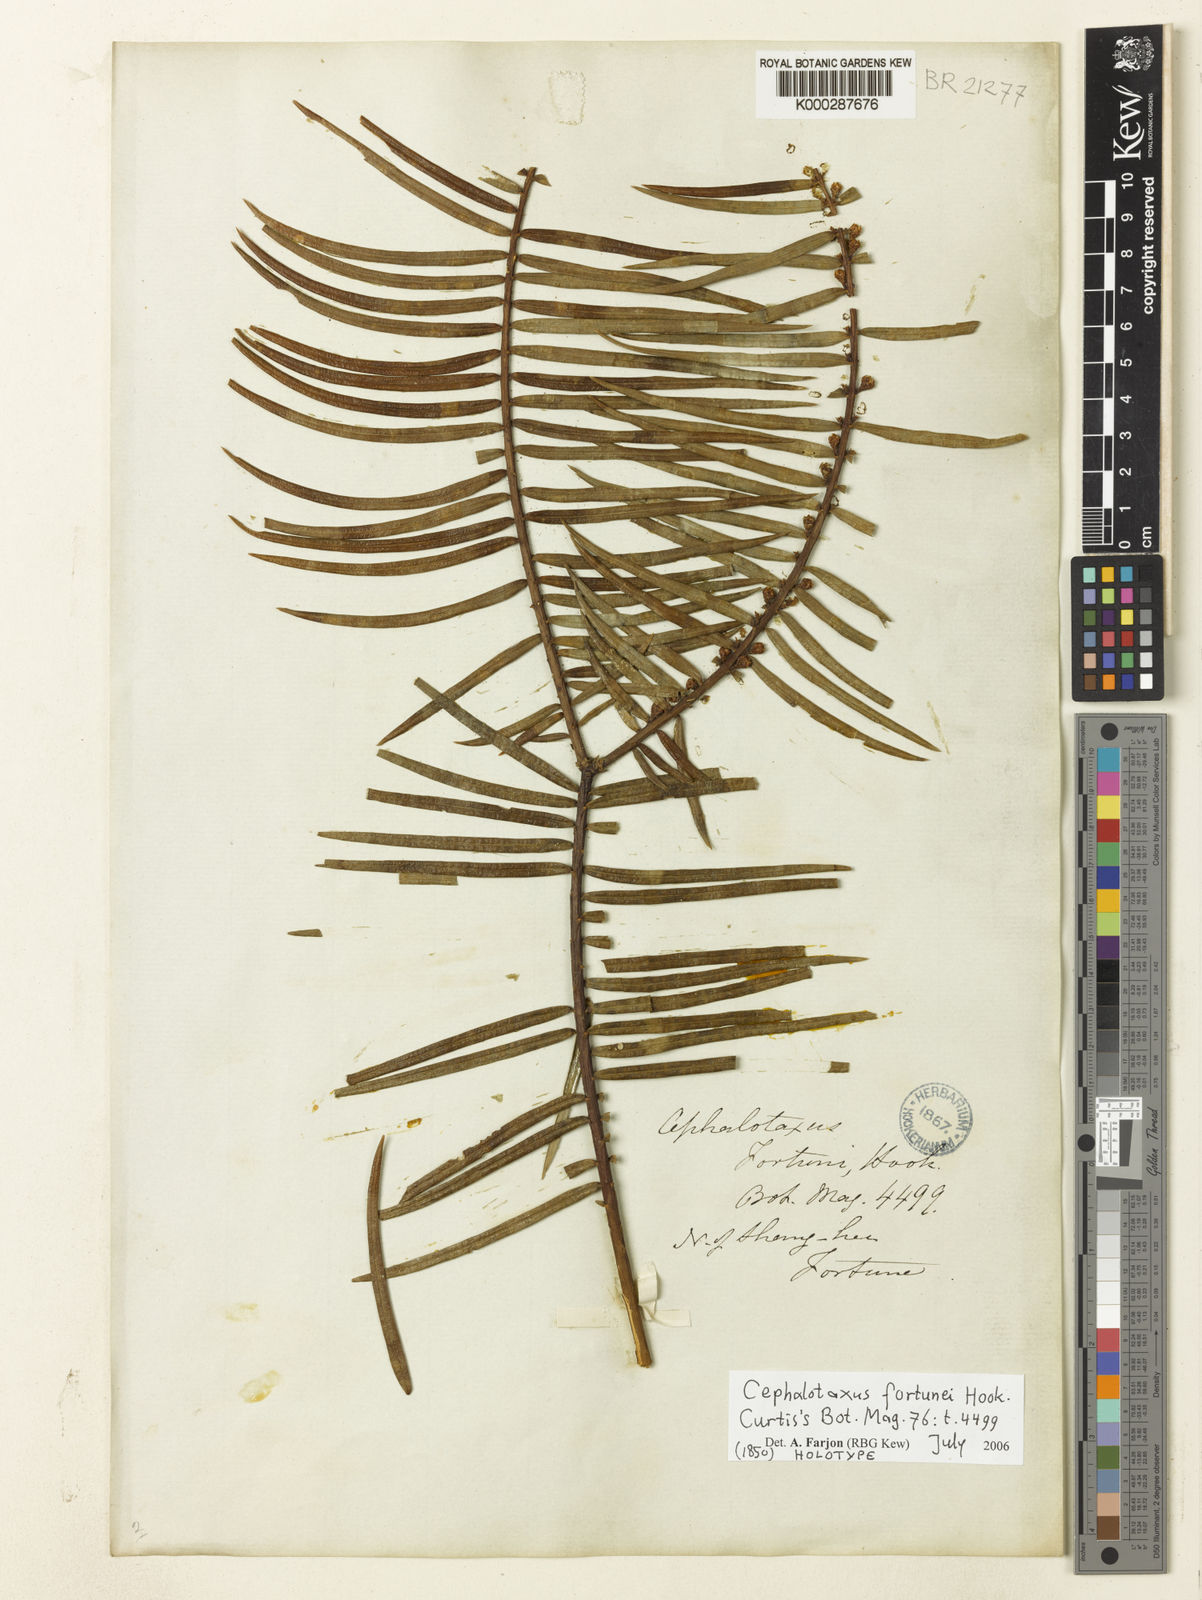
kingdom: Plantae
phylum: Tracheophyta
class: Pinopsida
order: Pinales
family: Cephalotaxaceae
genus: Cephalotaxus
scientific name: Cephalotaxus fortunei
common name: Chinese plum-yew
